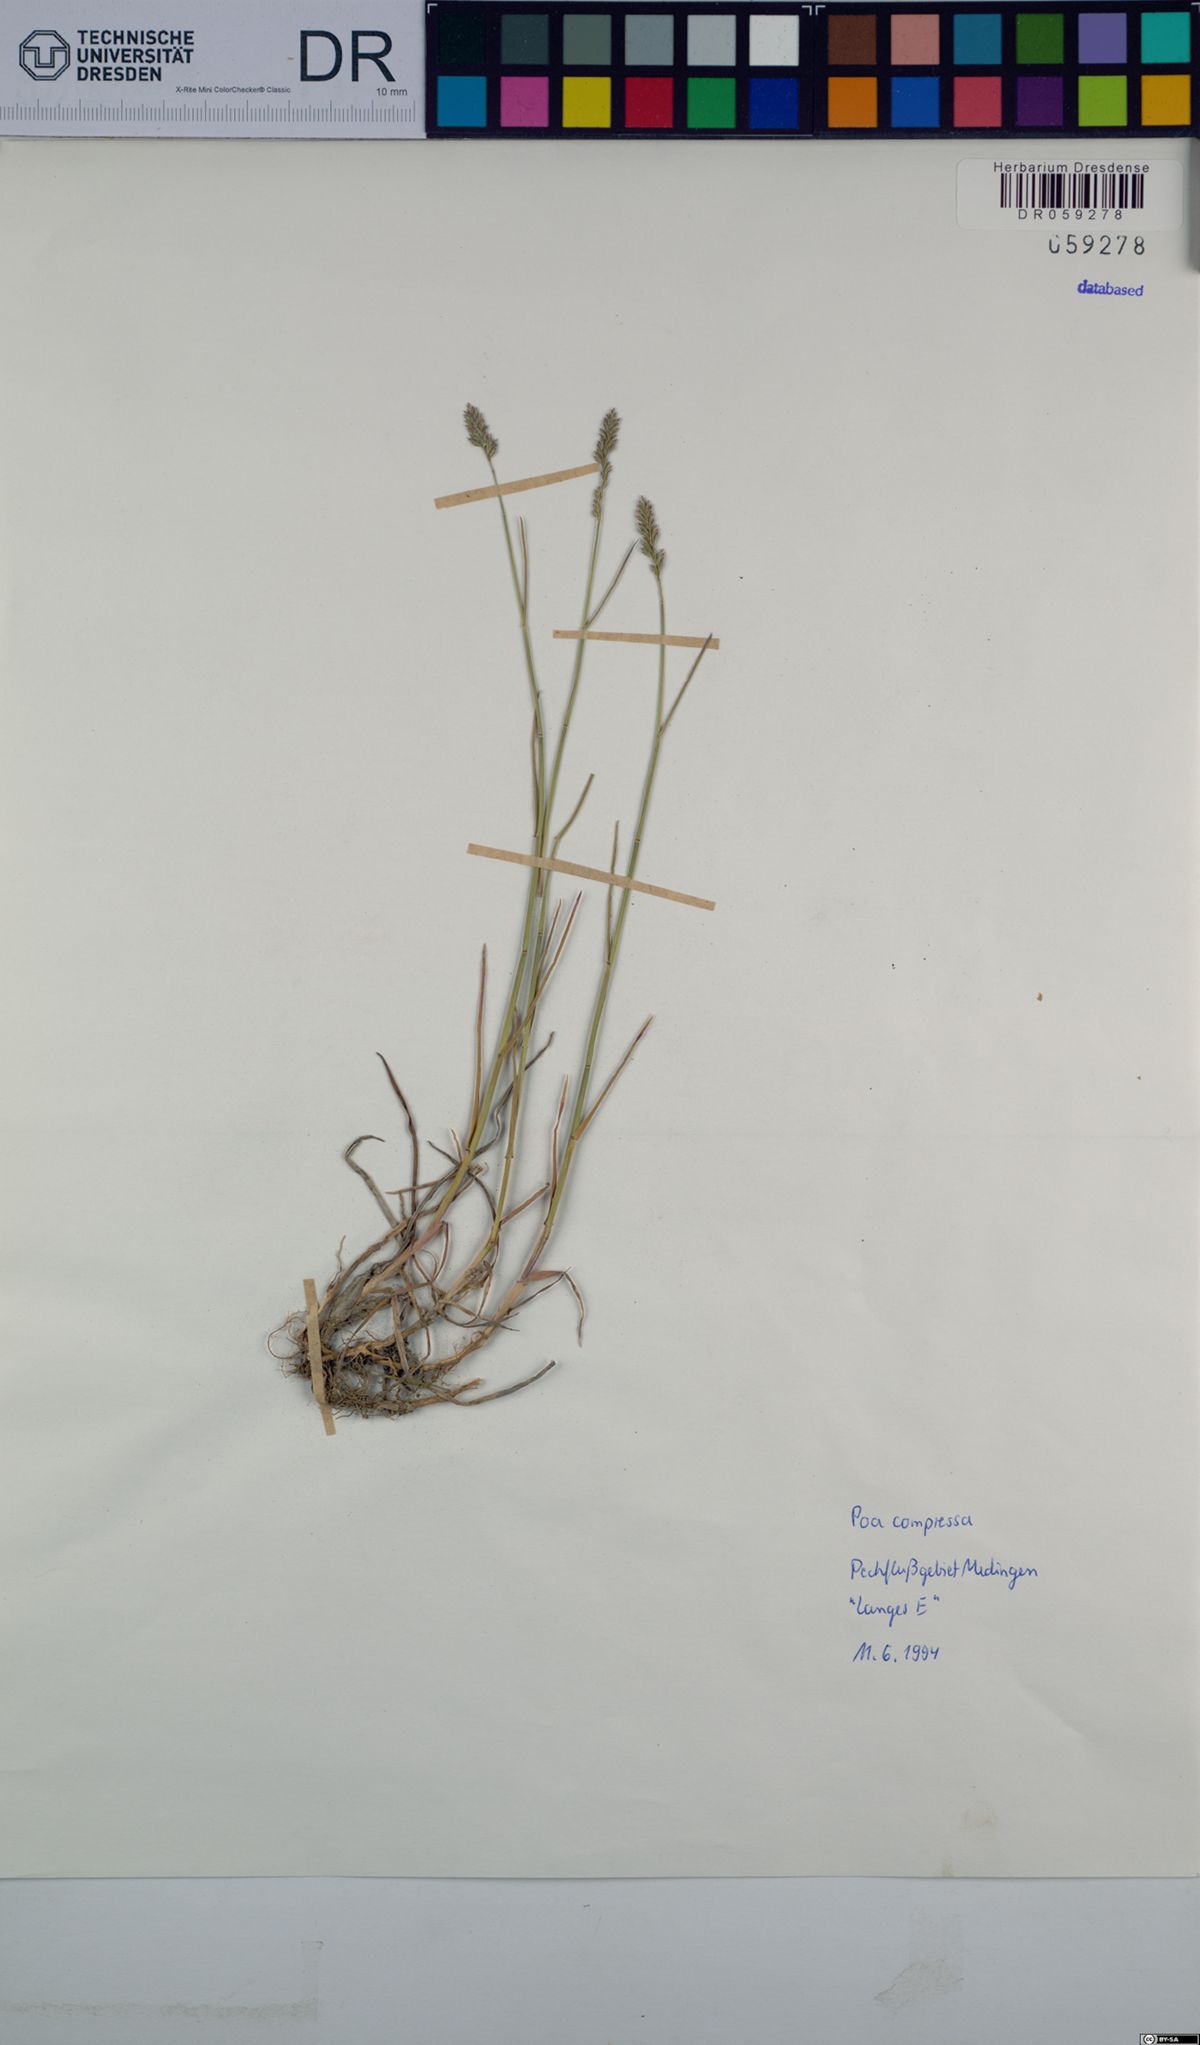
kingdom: Plantae
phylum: Tracheophyta
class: Liliopsida
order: Poales
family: Poaceae
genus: Poa
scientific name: Poa compressa
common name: Canada bluegrass
